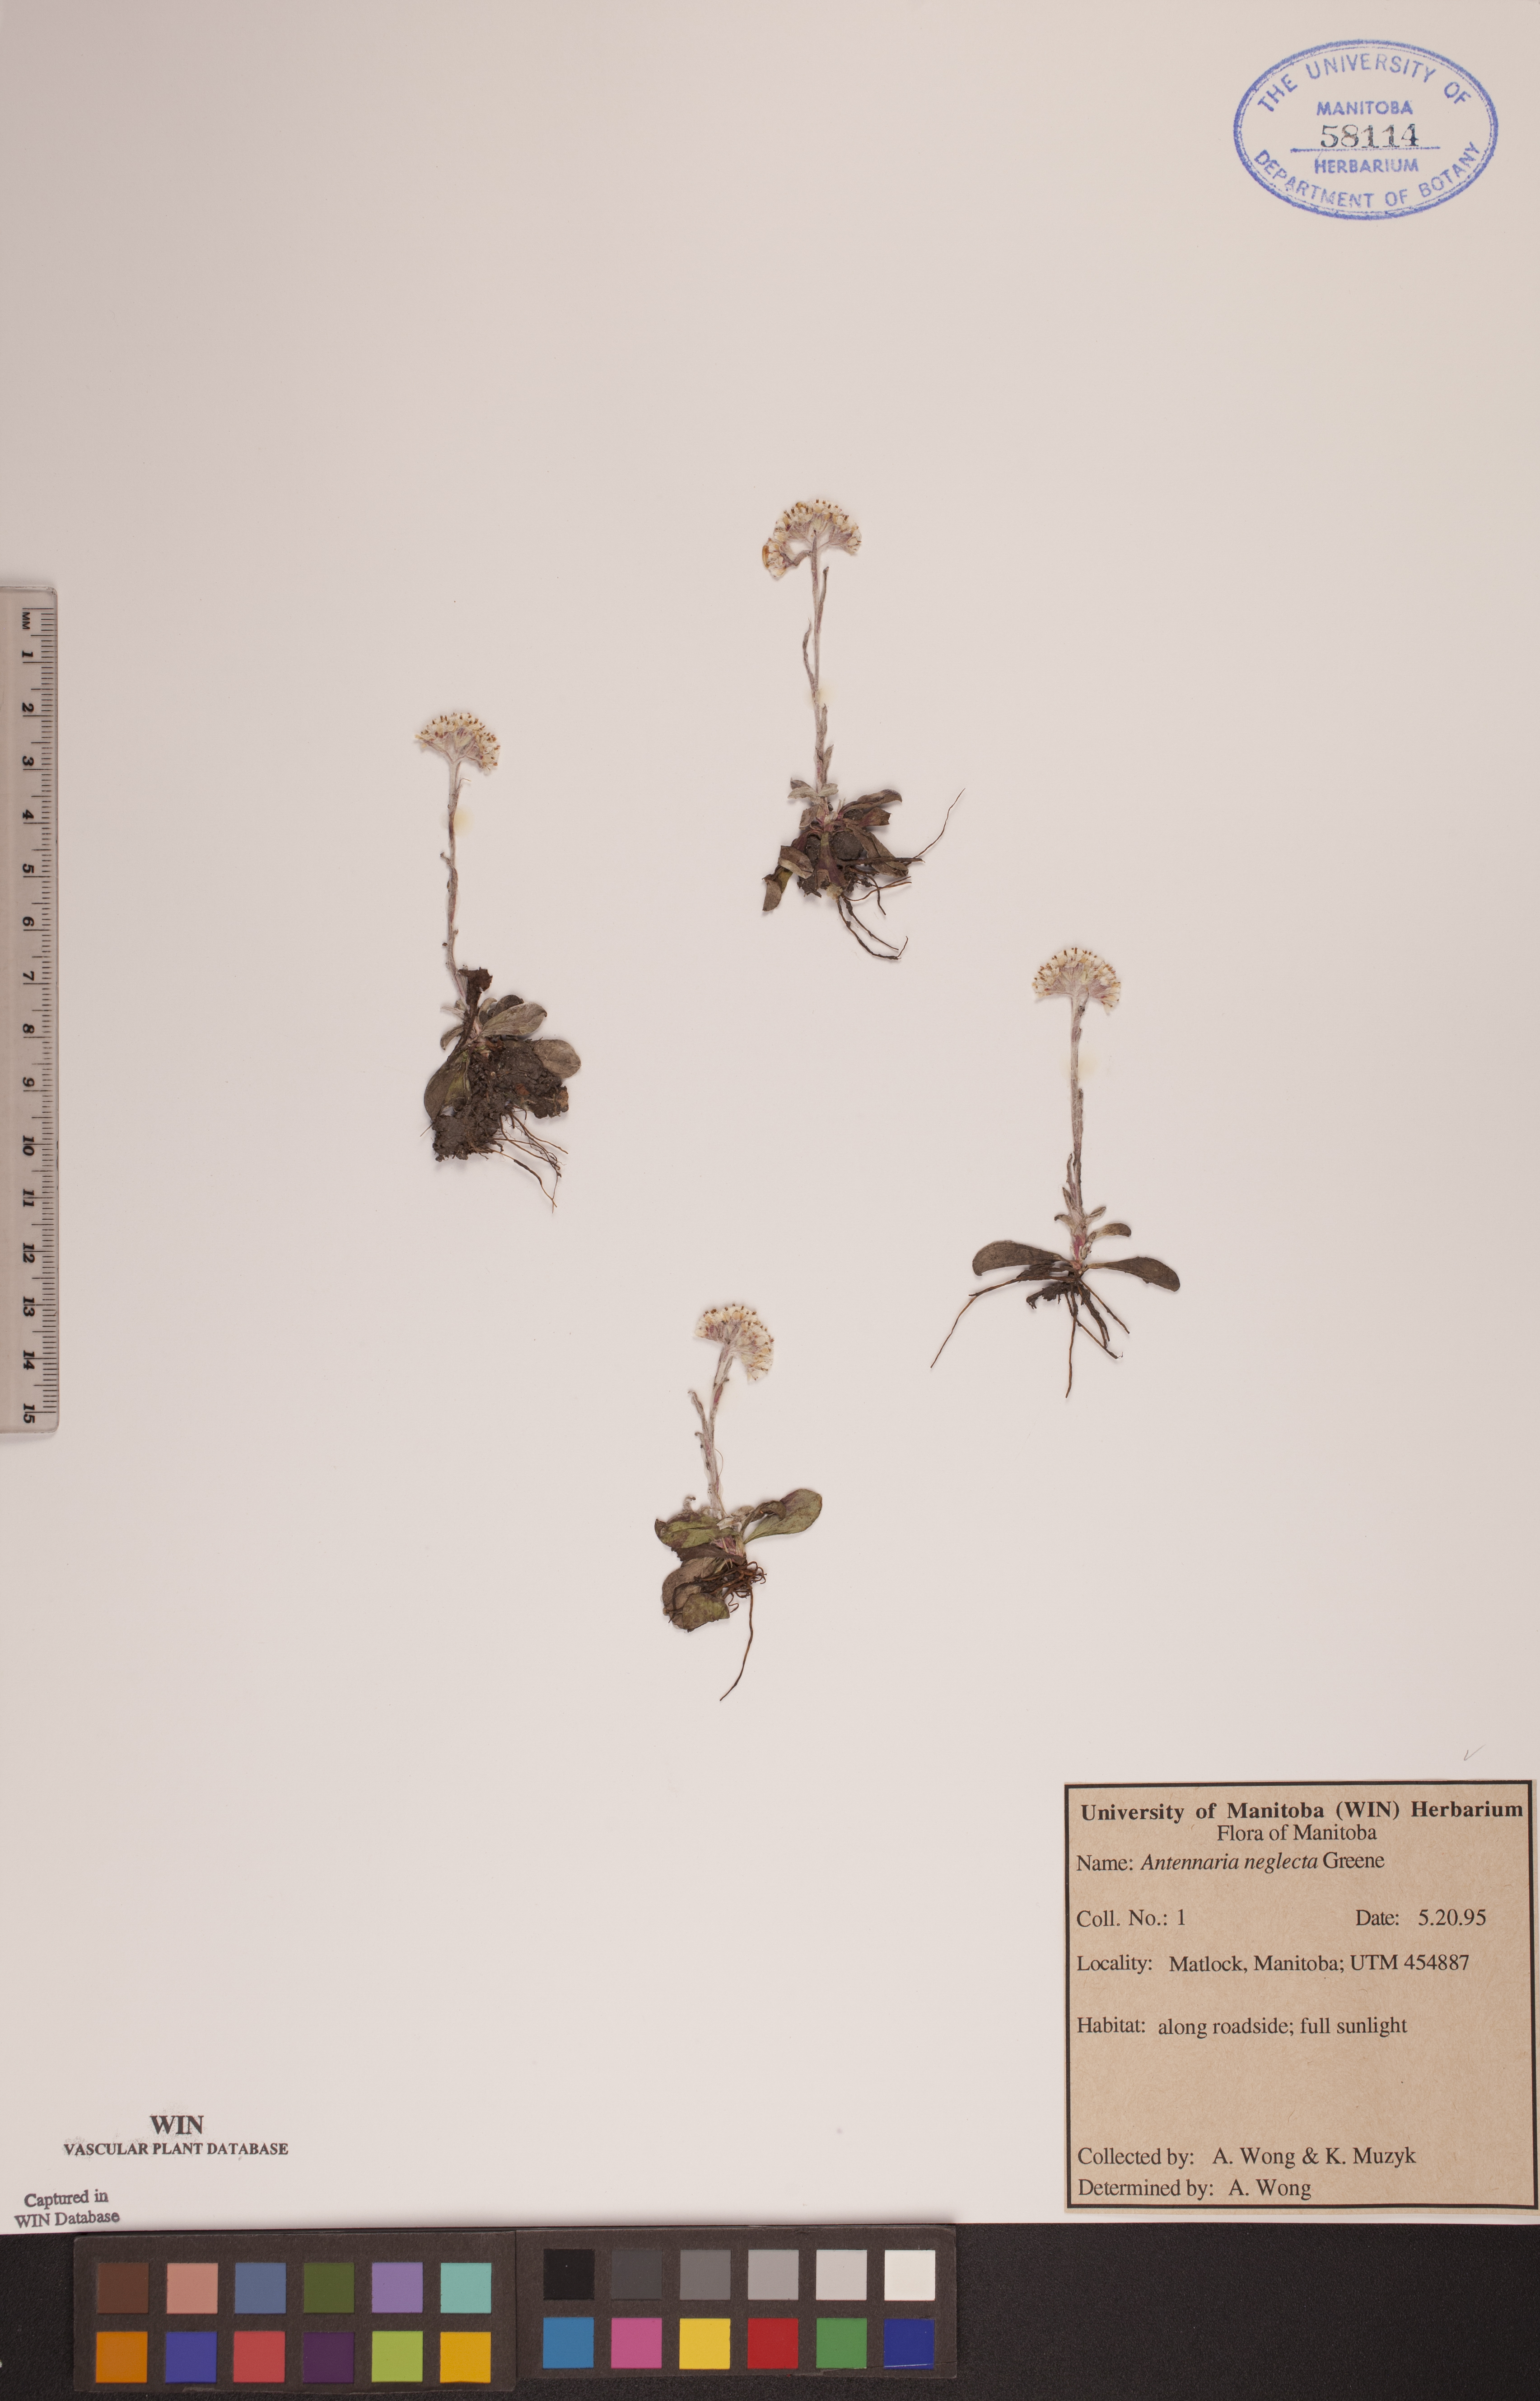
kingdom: Plantae
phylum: Tracheophyta
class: Magnoliopsida
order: Asterales
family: Asteraceae
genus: Antennaria
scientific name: Antennaria neglecta
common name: Field pussytoes
